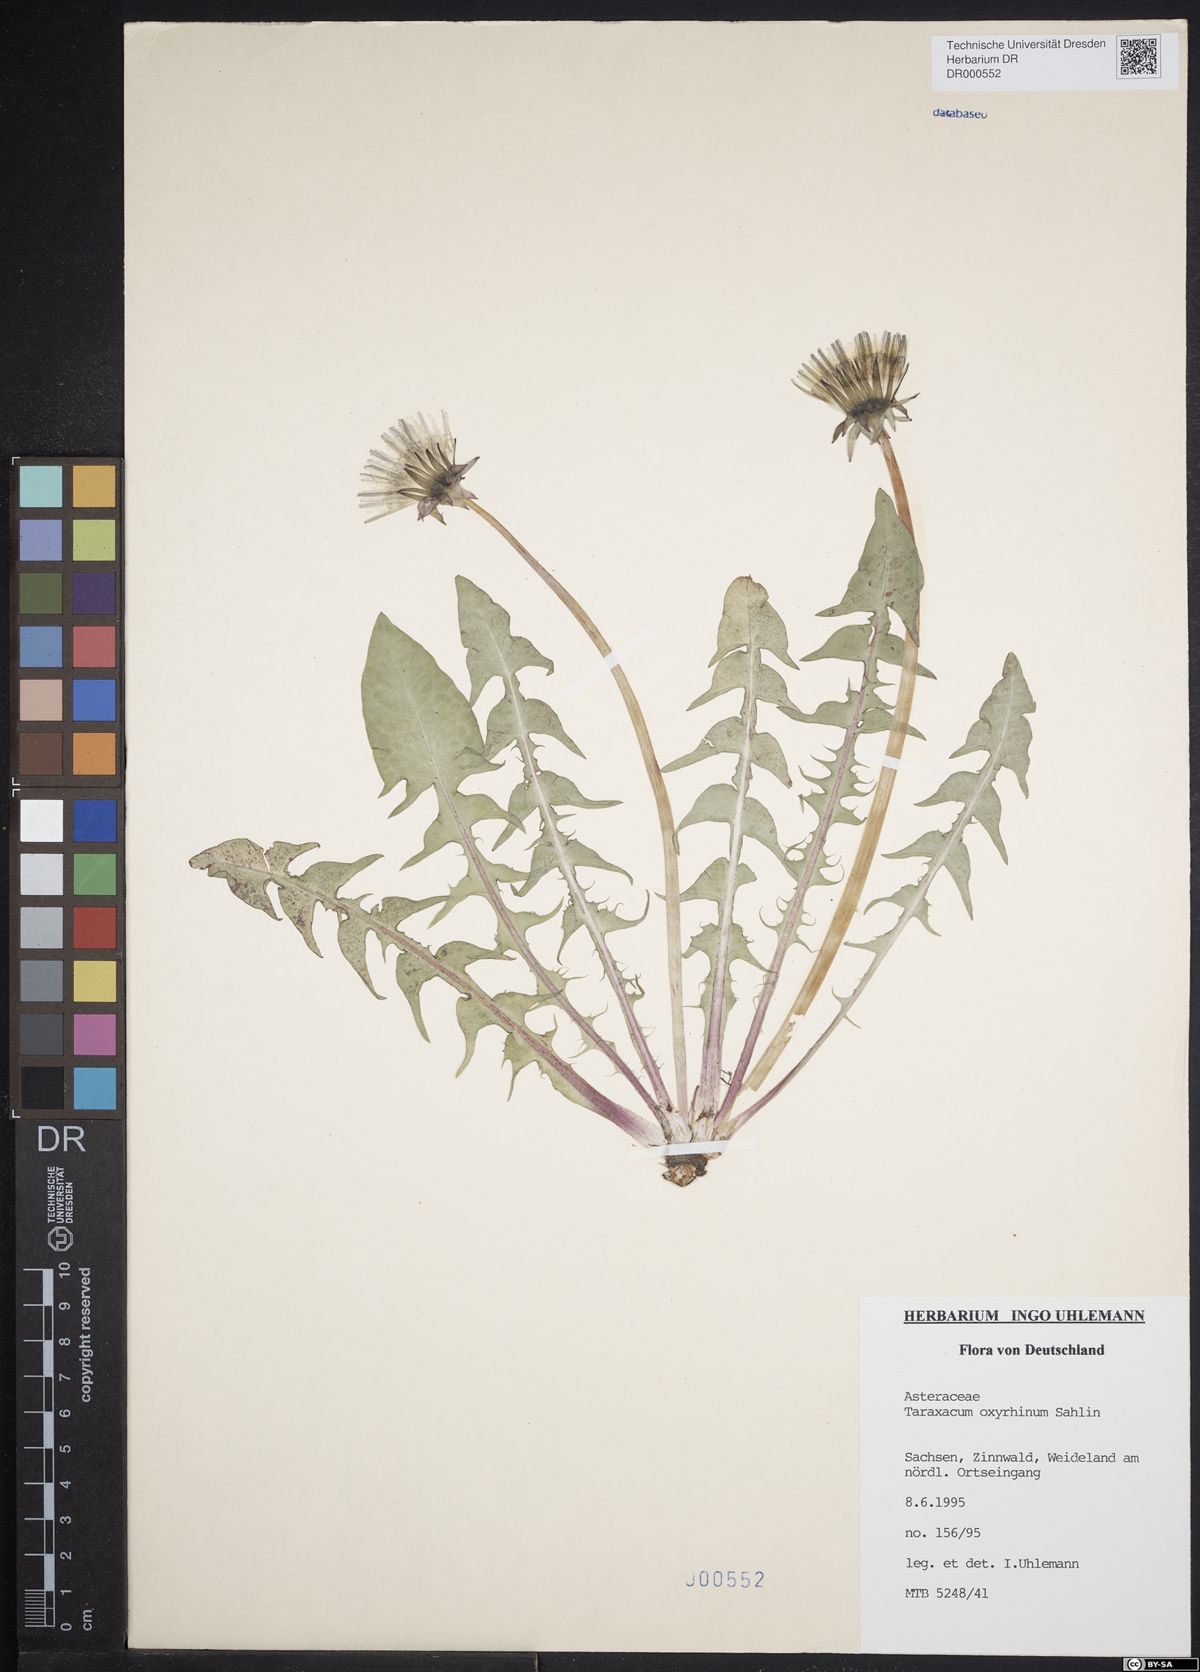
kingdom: Plantae
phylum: Tracheophyta
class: Magnoliopsida
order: Asterales
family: Asteraceae
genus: Taraxacum
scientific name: Taraxacum oxyrrhinum
